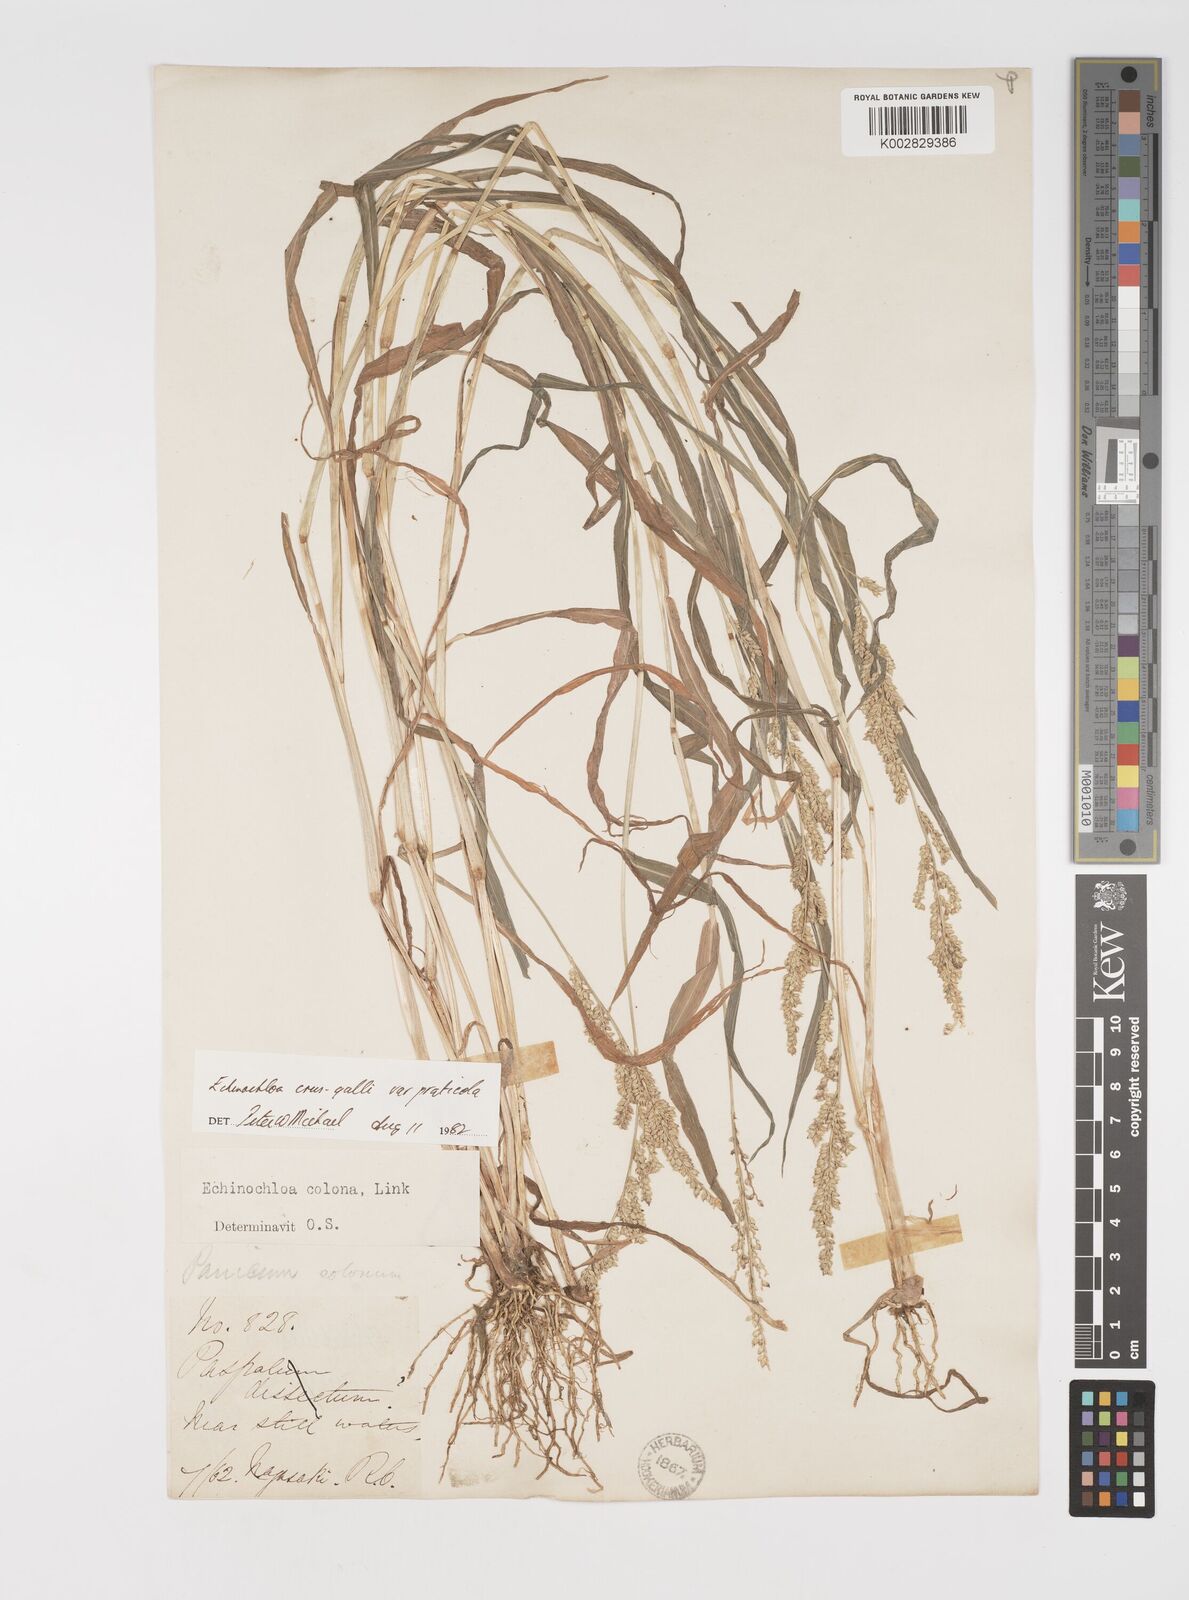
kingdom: Plantae
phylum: Tracheophyta
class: Liliopsida
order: Poales
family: Poaceae
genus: Echinochloa
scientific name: Echinochloa crus-galli
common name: Cockspur
